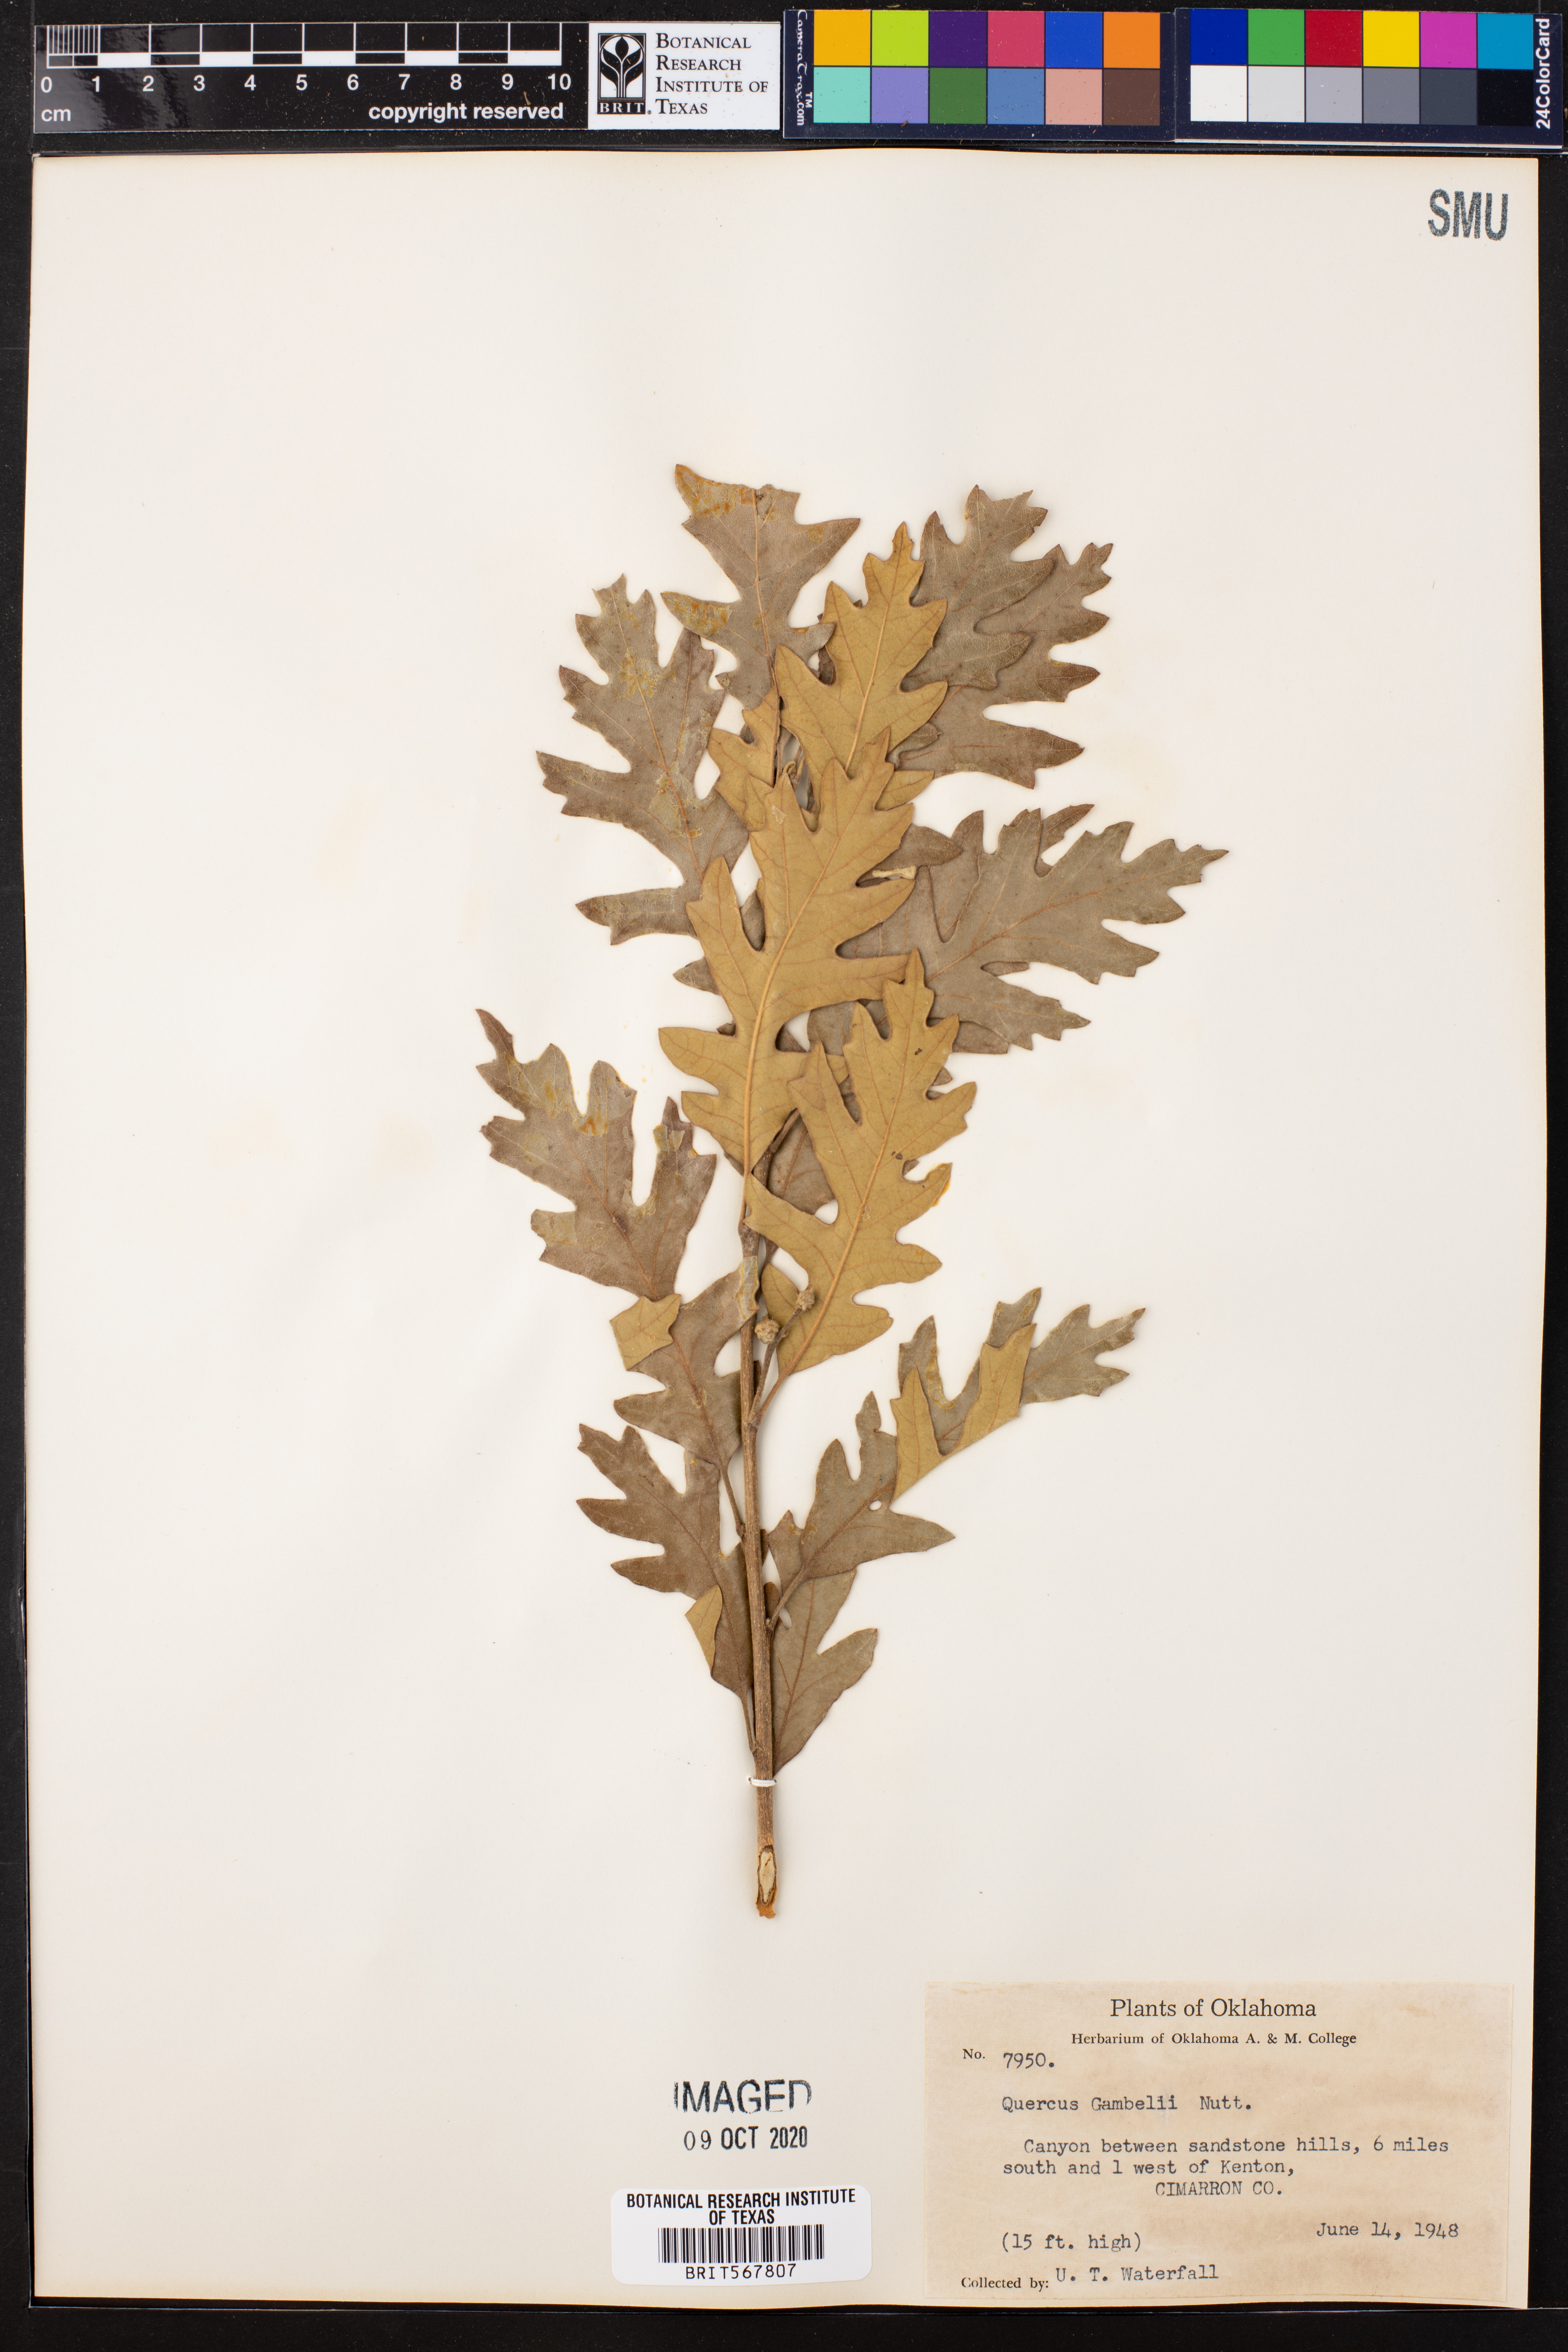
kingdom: Plantae
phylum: Tracheophyta
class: Magnoliopsida
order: Fagales
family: Fagaceae
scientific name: Fagaceae
